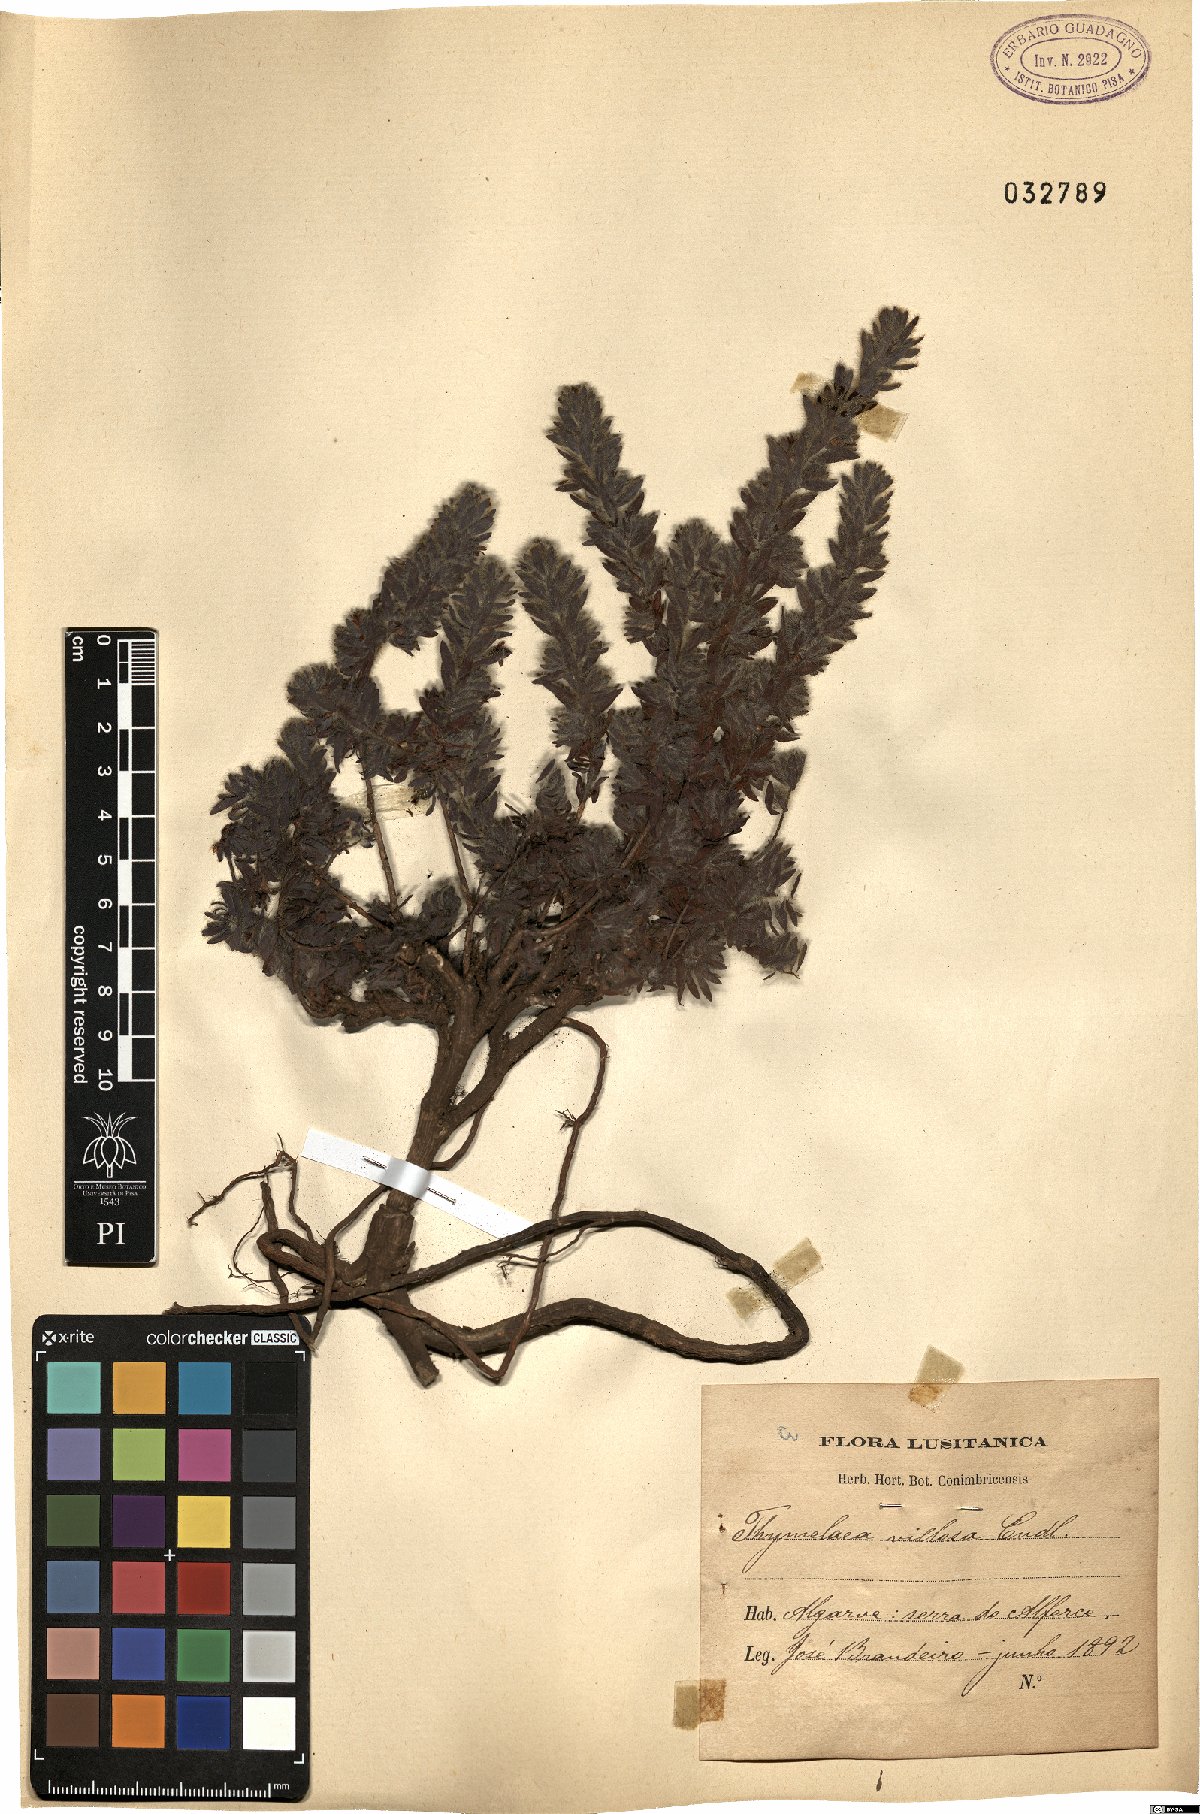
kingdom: Plantae
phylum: Tracheophyta
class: Magnoliopsida
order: Malvales
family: Thymelaeaceae
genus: Thymelaea
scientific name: Thymelaea villosa
